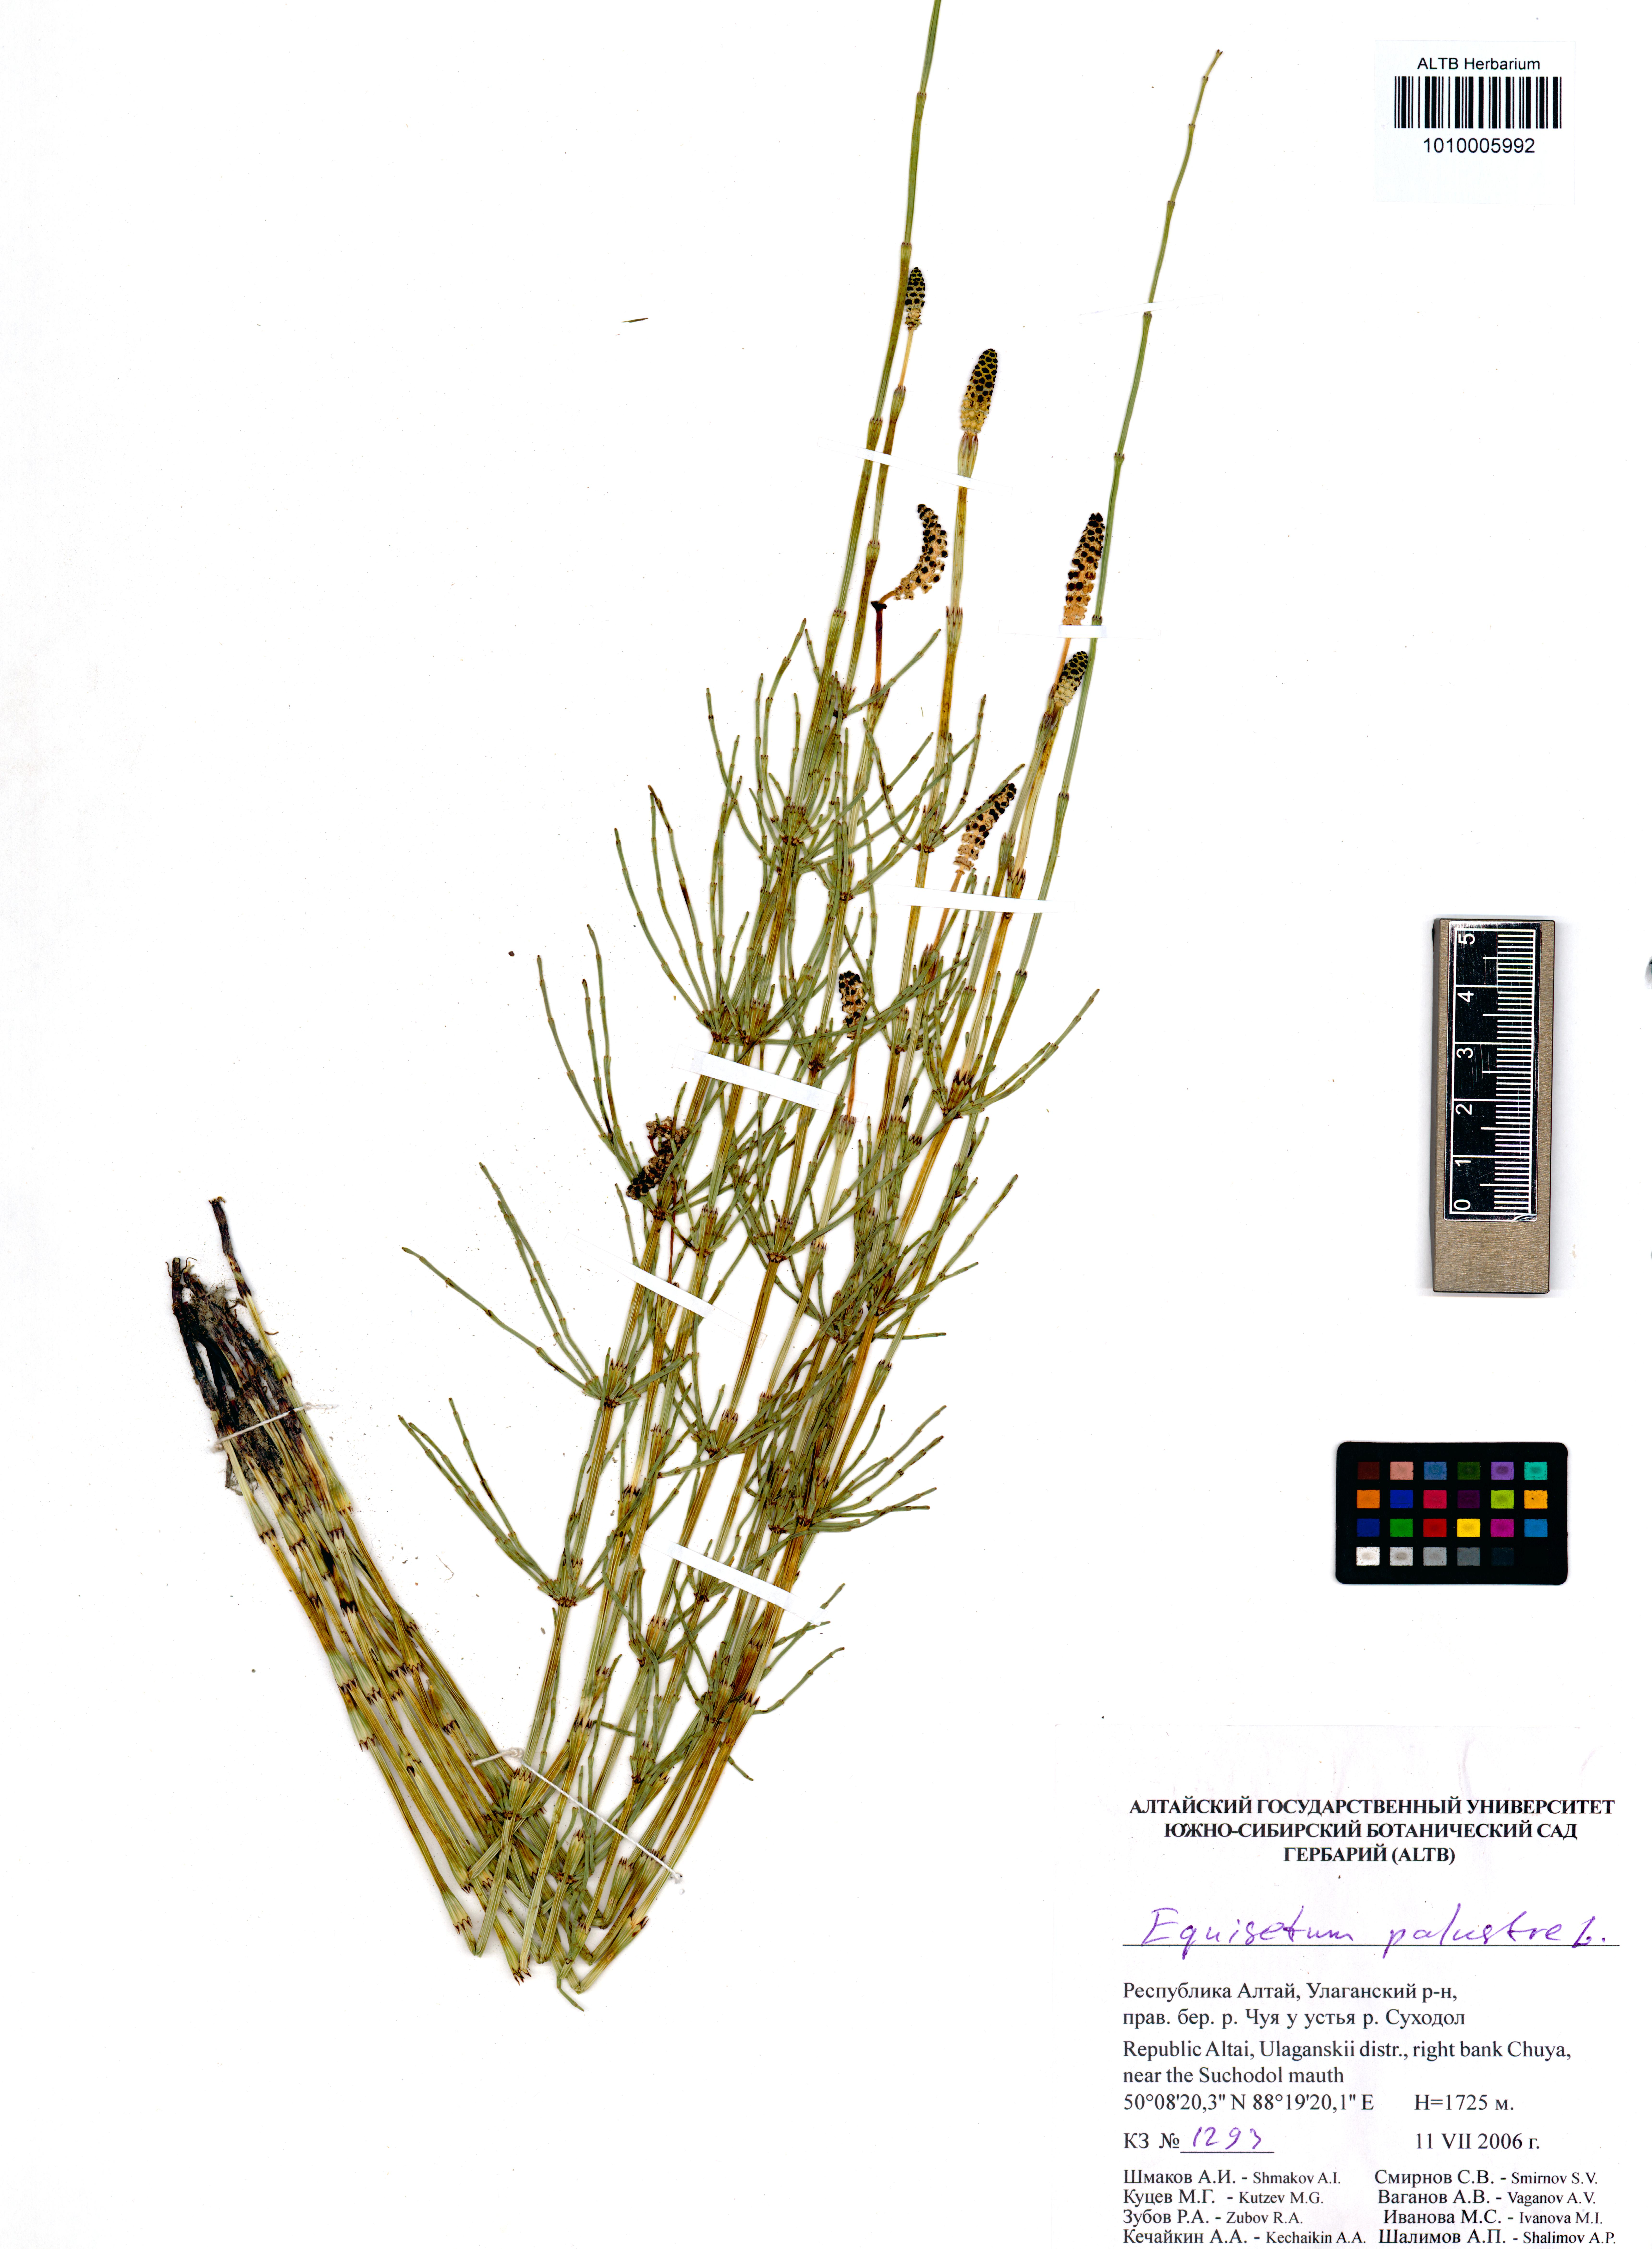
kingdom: Plantae
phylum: Tracheophyta
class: Polypodiopsida
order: Equisetales
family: Equisetaceae
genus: Equisetum
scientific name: Equisetum palustre
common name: Marsh horsetail
